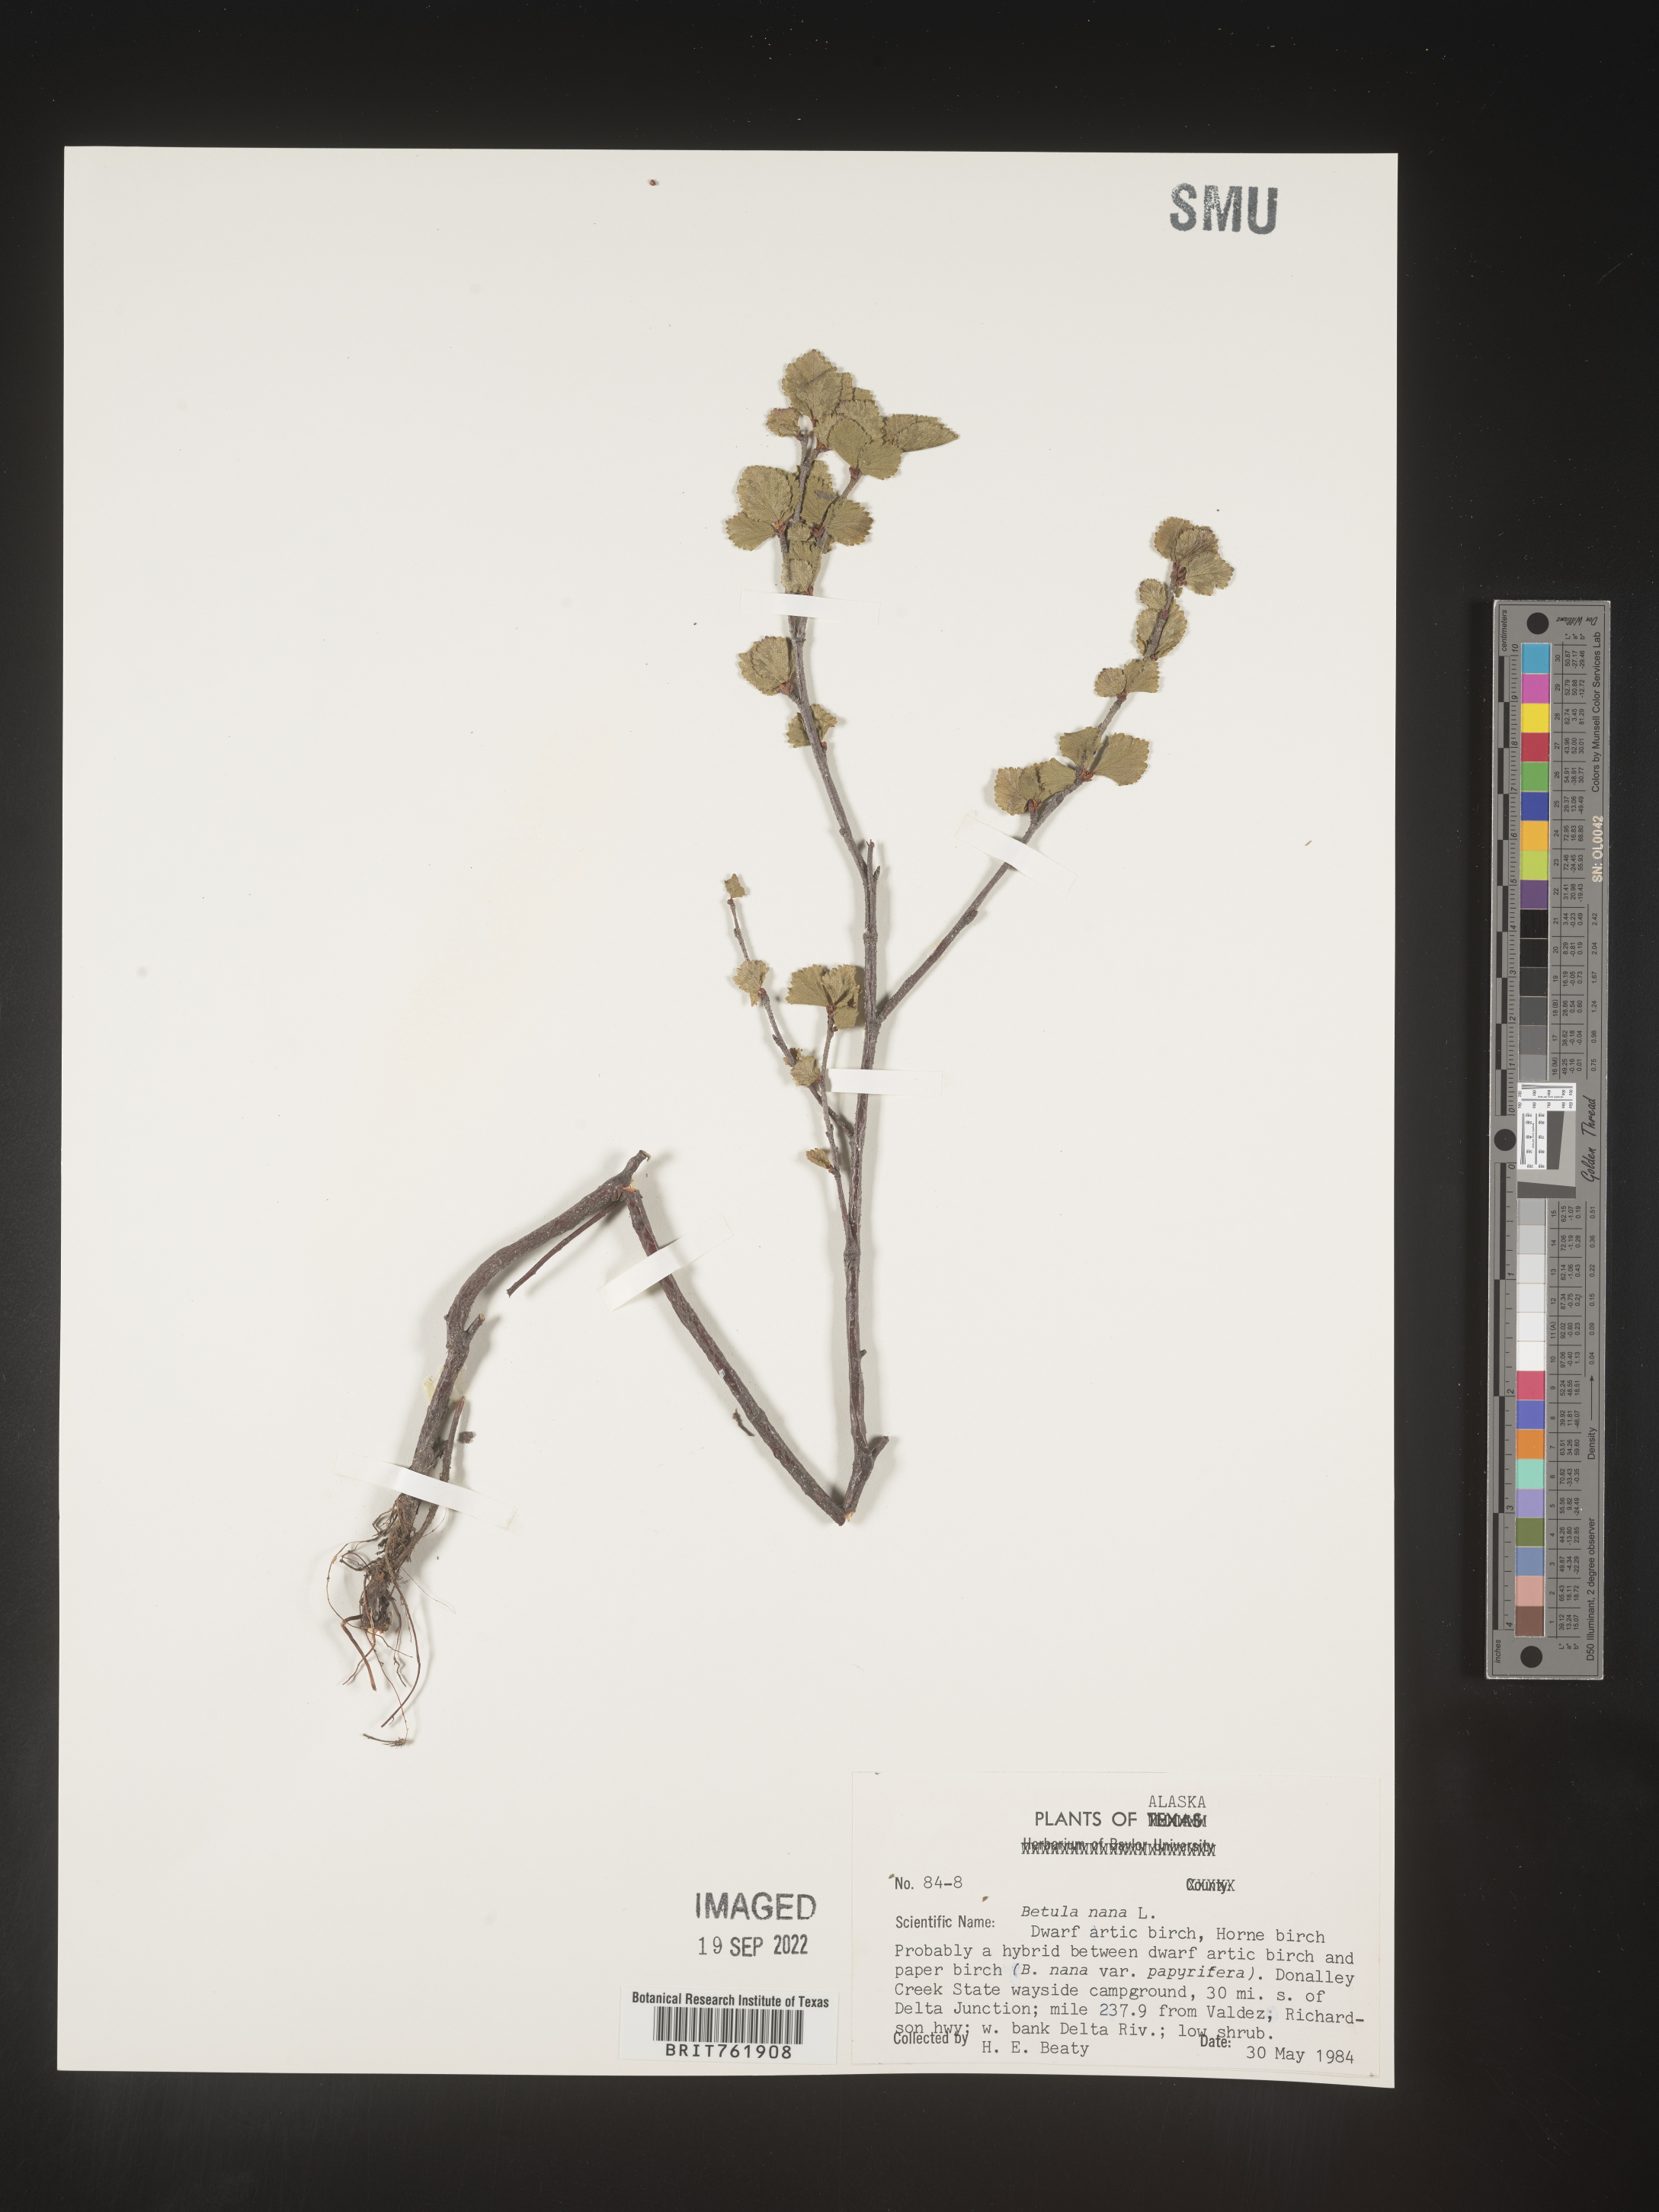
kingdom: Plantae
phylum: Tracheophyta
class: Magnoliopsida
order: Fagales
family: Betulaceae
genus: Betula
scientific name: Betula nana
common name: Arctic dwarf birch
